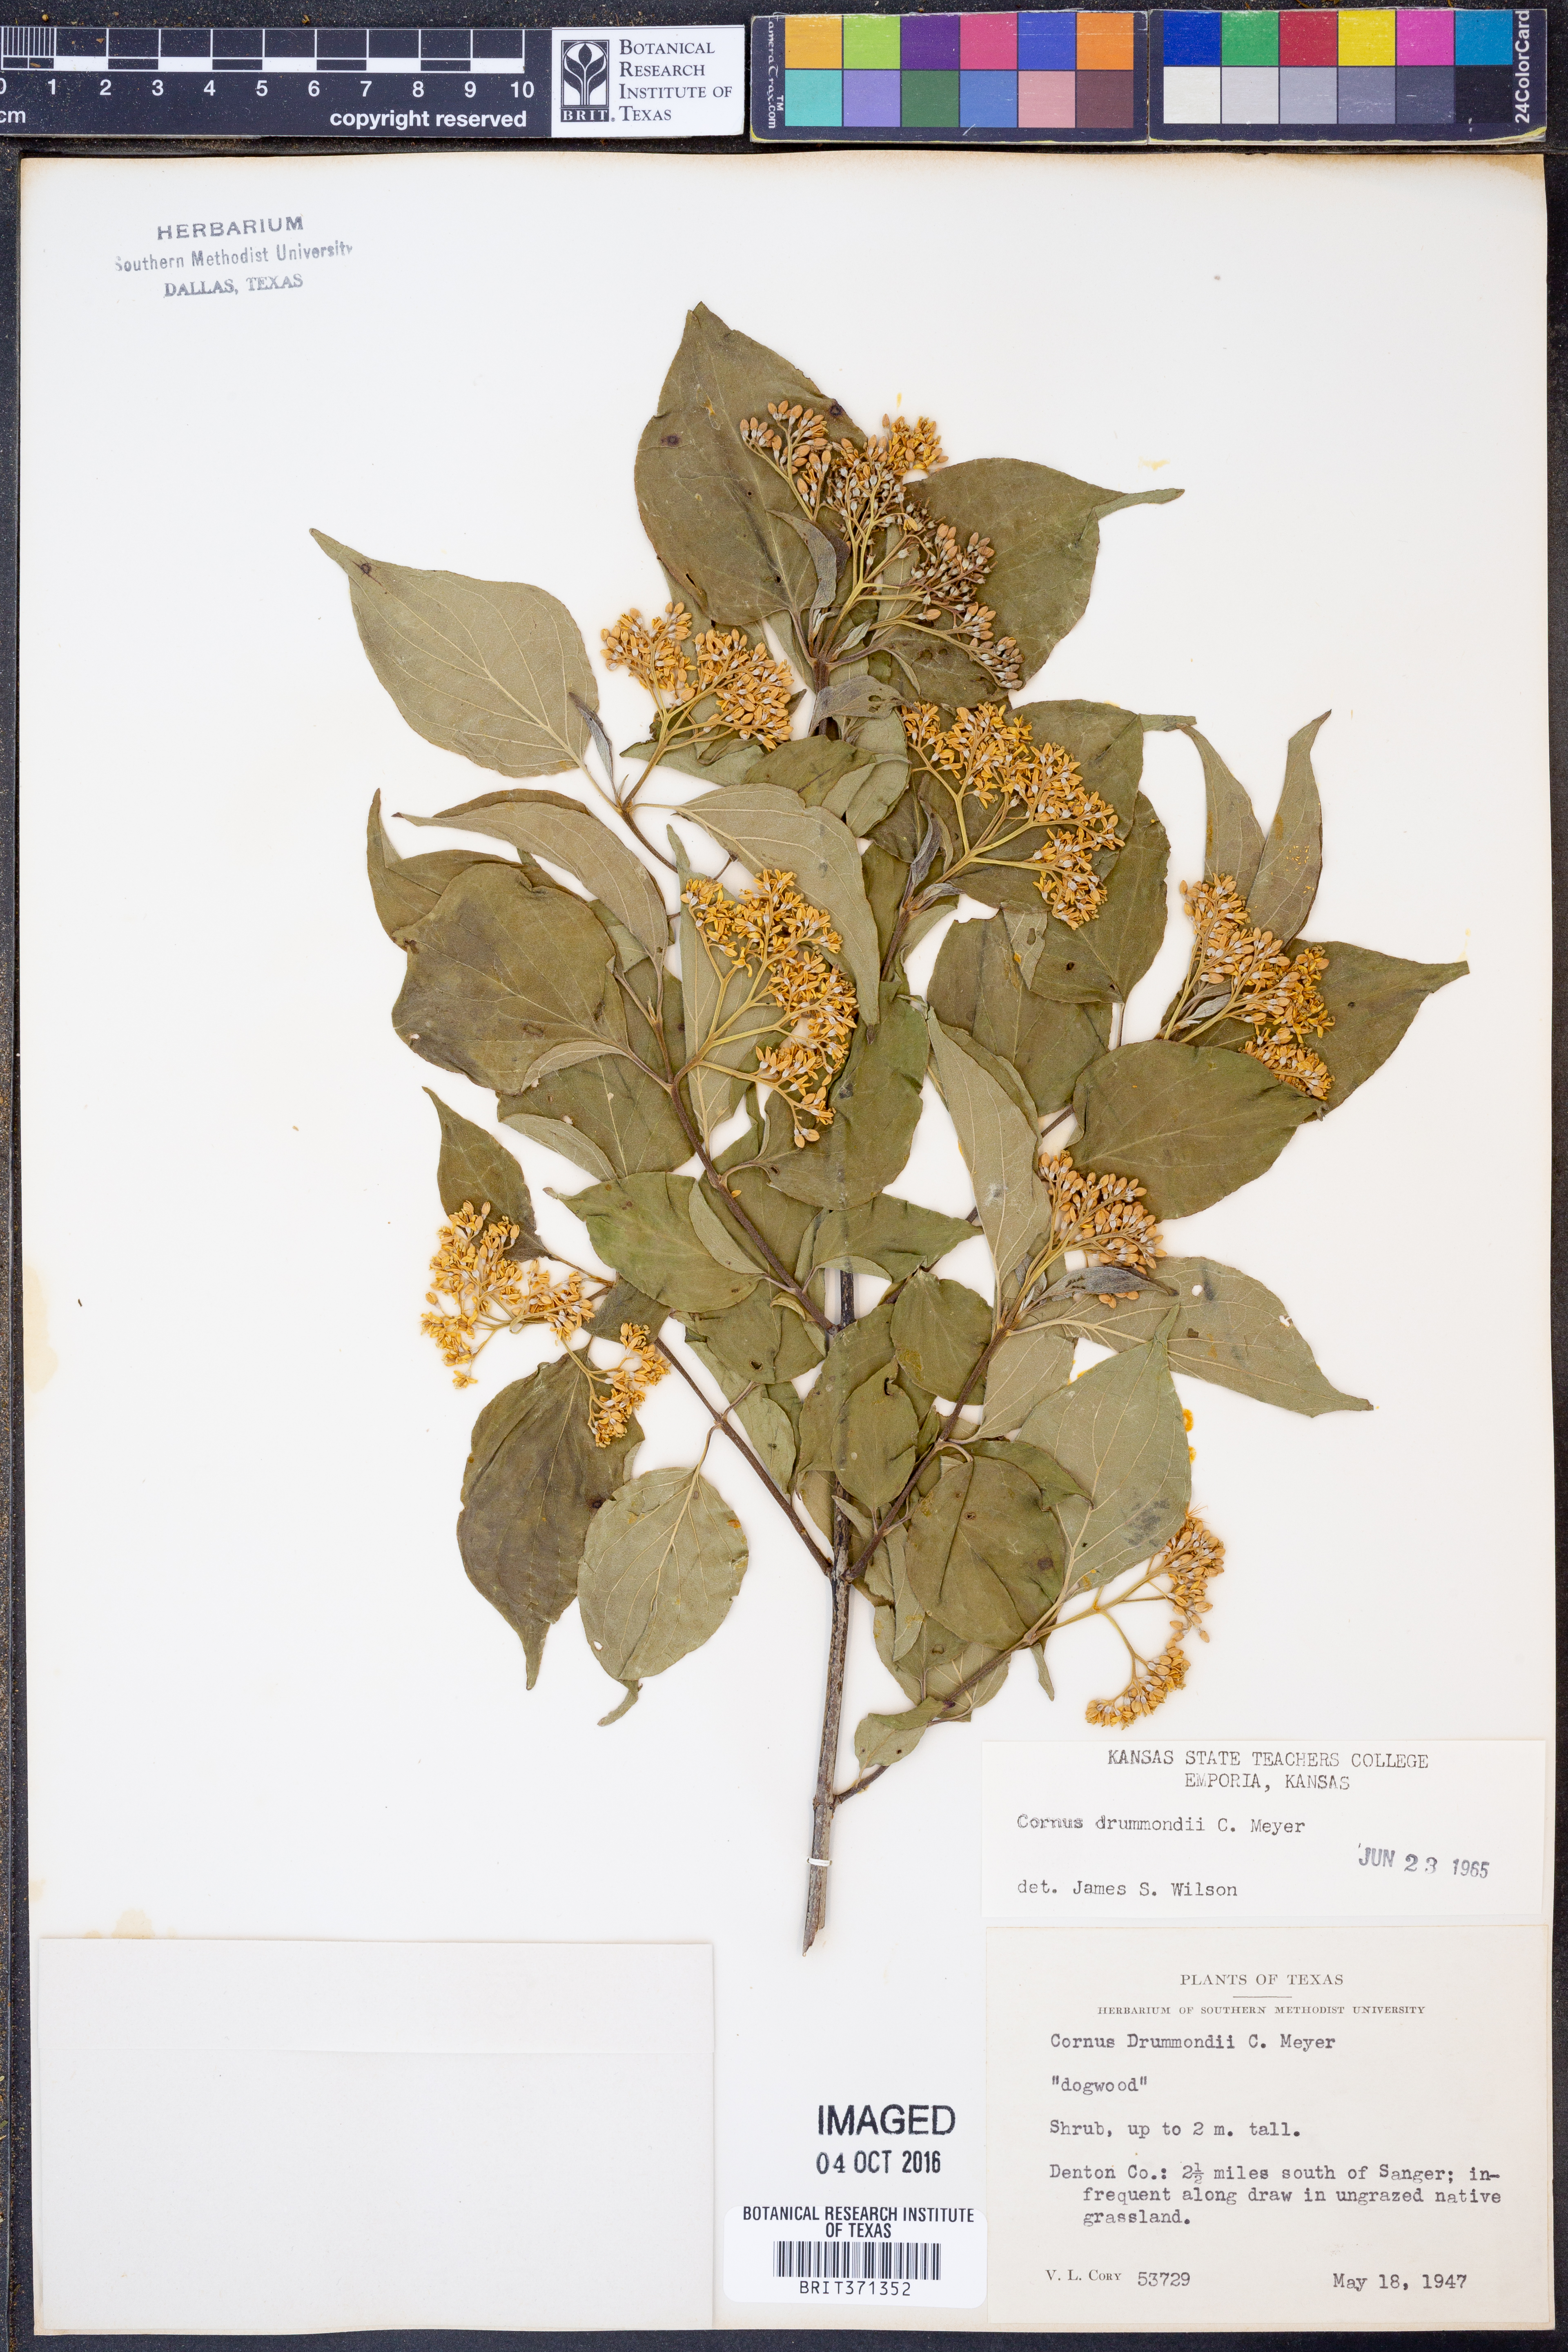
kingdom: Plantae
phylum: Tracheophyta
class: Magnoliopsida
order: Cornales
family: Cornaceae
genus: Cornus
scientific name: Cornus drummondii
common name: Rough-leaf dogwood
